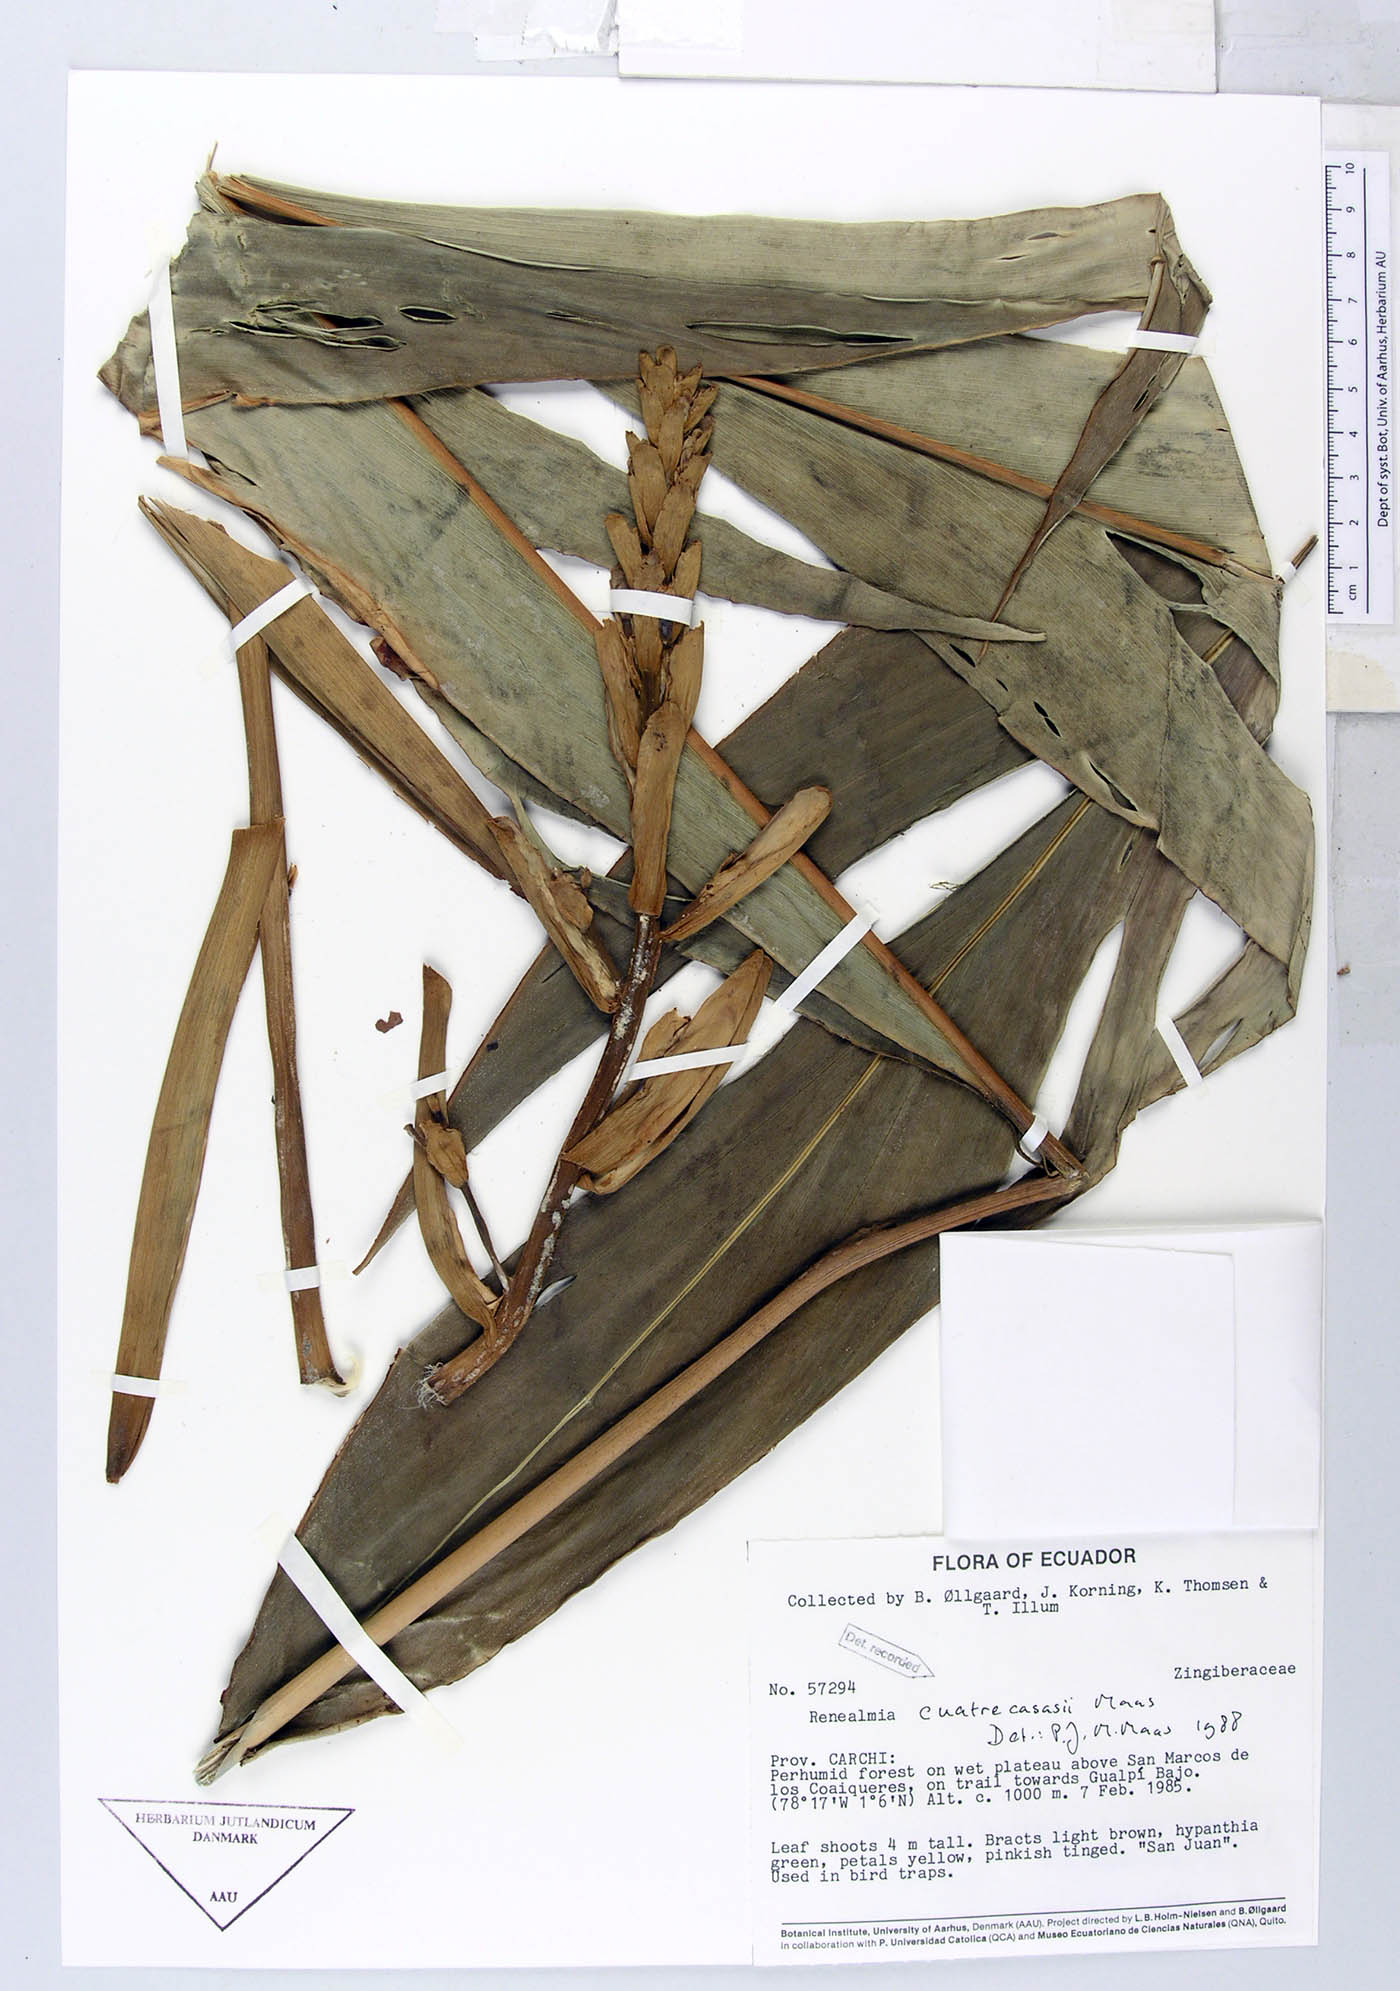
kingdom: Plantae
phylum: Tracheophyta
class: Liliopsida
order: Zingiberales
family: Zingiberaceae
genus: Renealmia
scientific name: Renealmia cuatrecasasii
